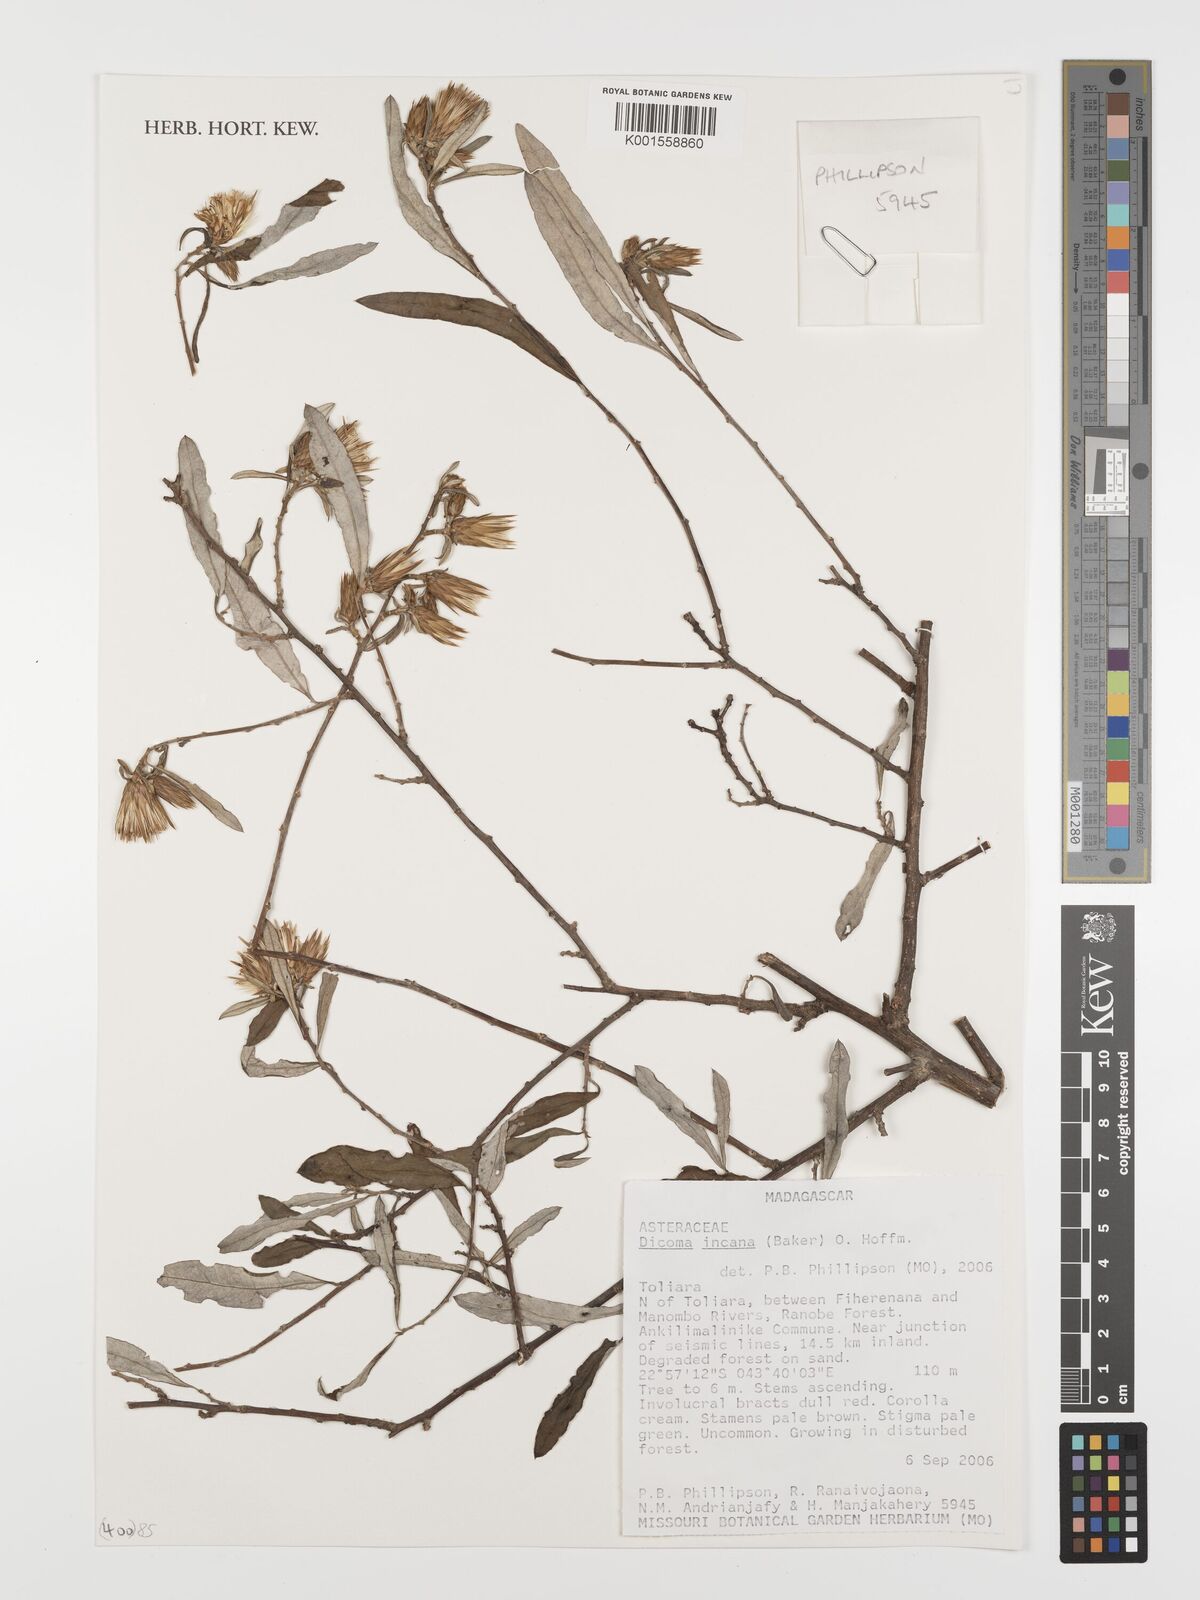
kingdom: Plantae
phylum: Tracheophyta
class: Magnoliopsida
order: Asterales
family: Asteraceae
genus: Dicoma
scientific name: Dicoma incana
